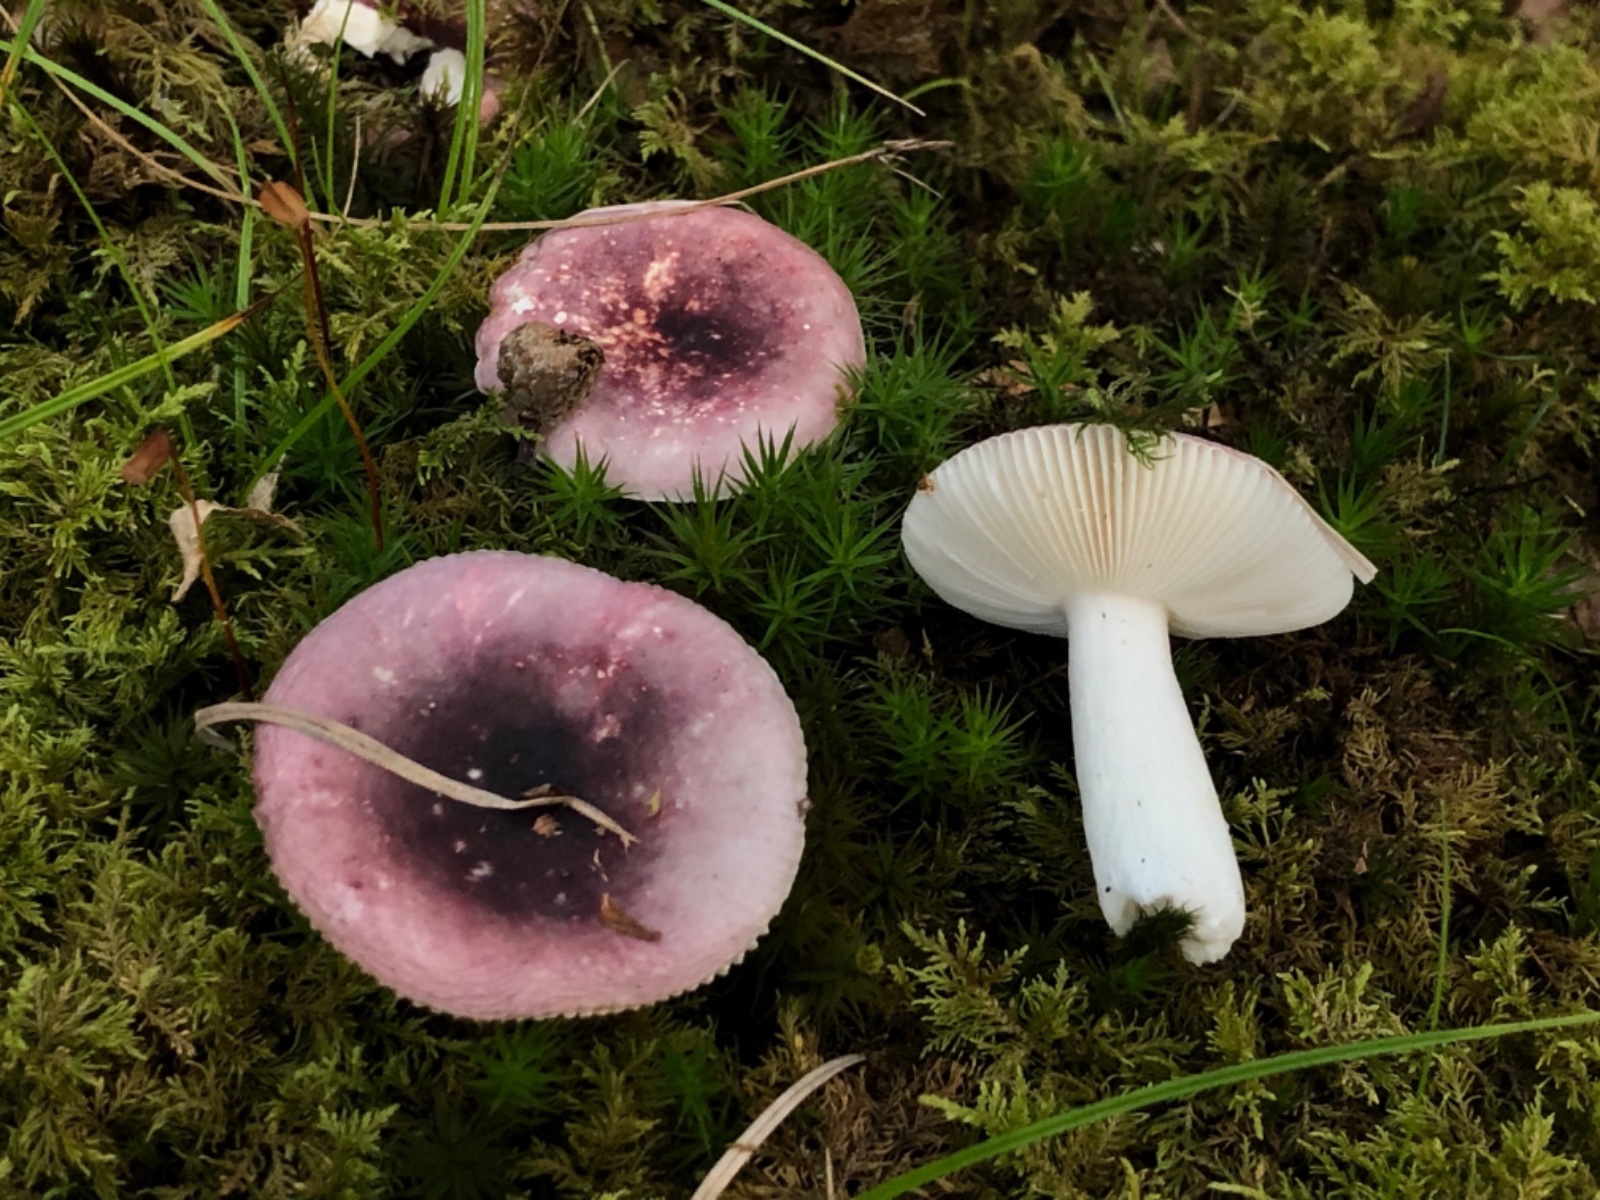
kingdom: Fungi
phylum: Basidiomycota
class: Agaricomycetes
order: Russulales
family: Russulaceae
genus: Russula
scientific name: Russula fragilis
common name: savbladet skørhat
